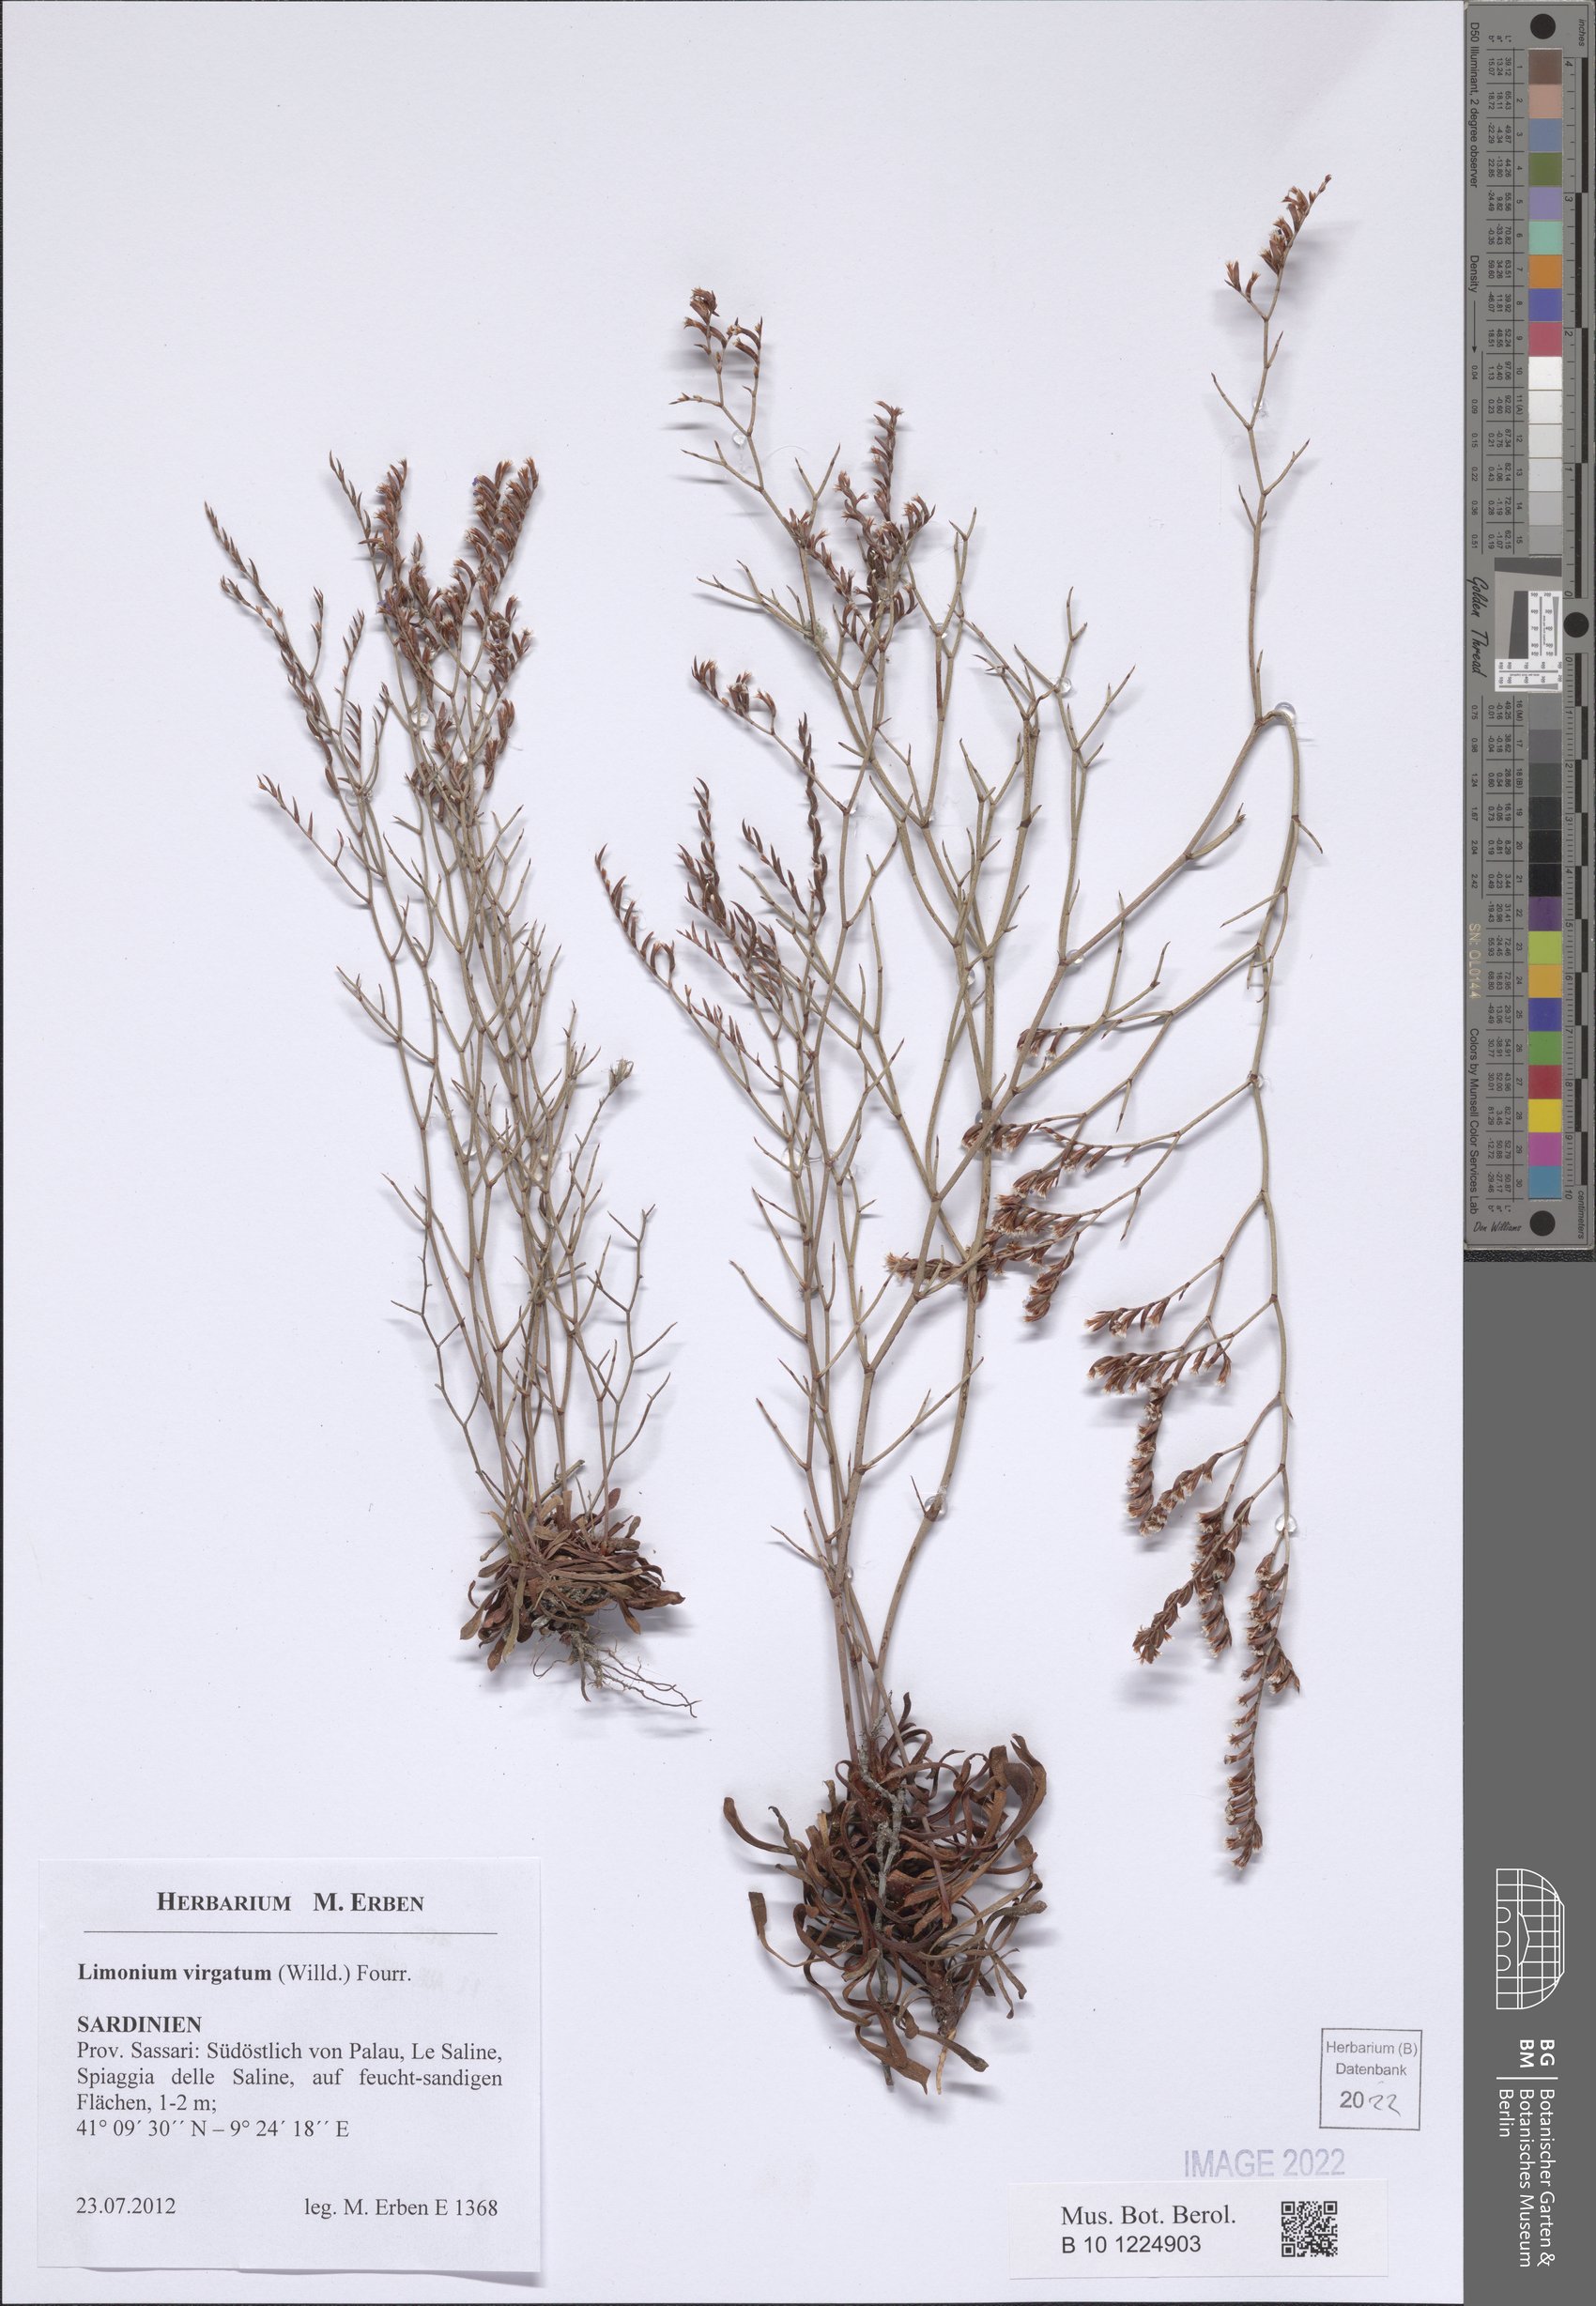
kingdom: Plantae
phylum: Tracheophyta
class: Magnoliopsida
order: Caryophyllales
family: Plumbaginaceae
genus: Limonium
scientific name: Limonium virgatum
